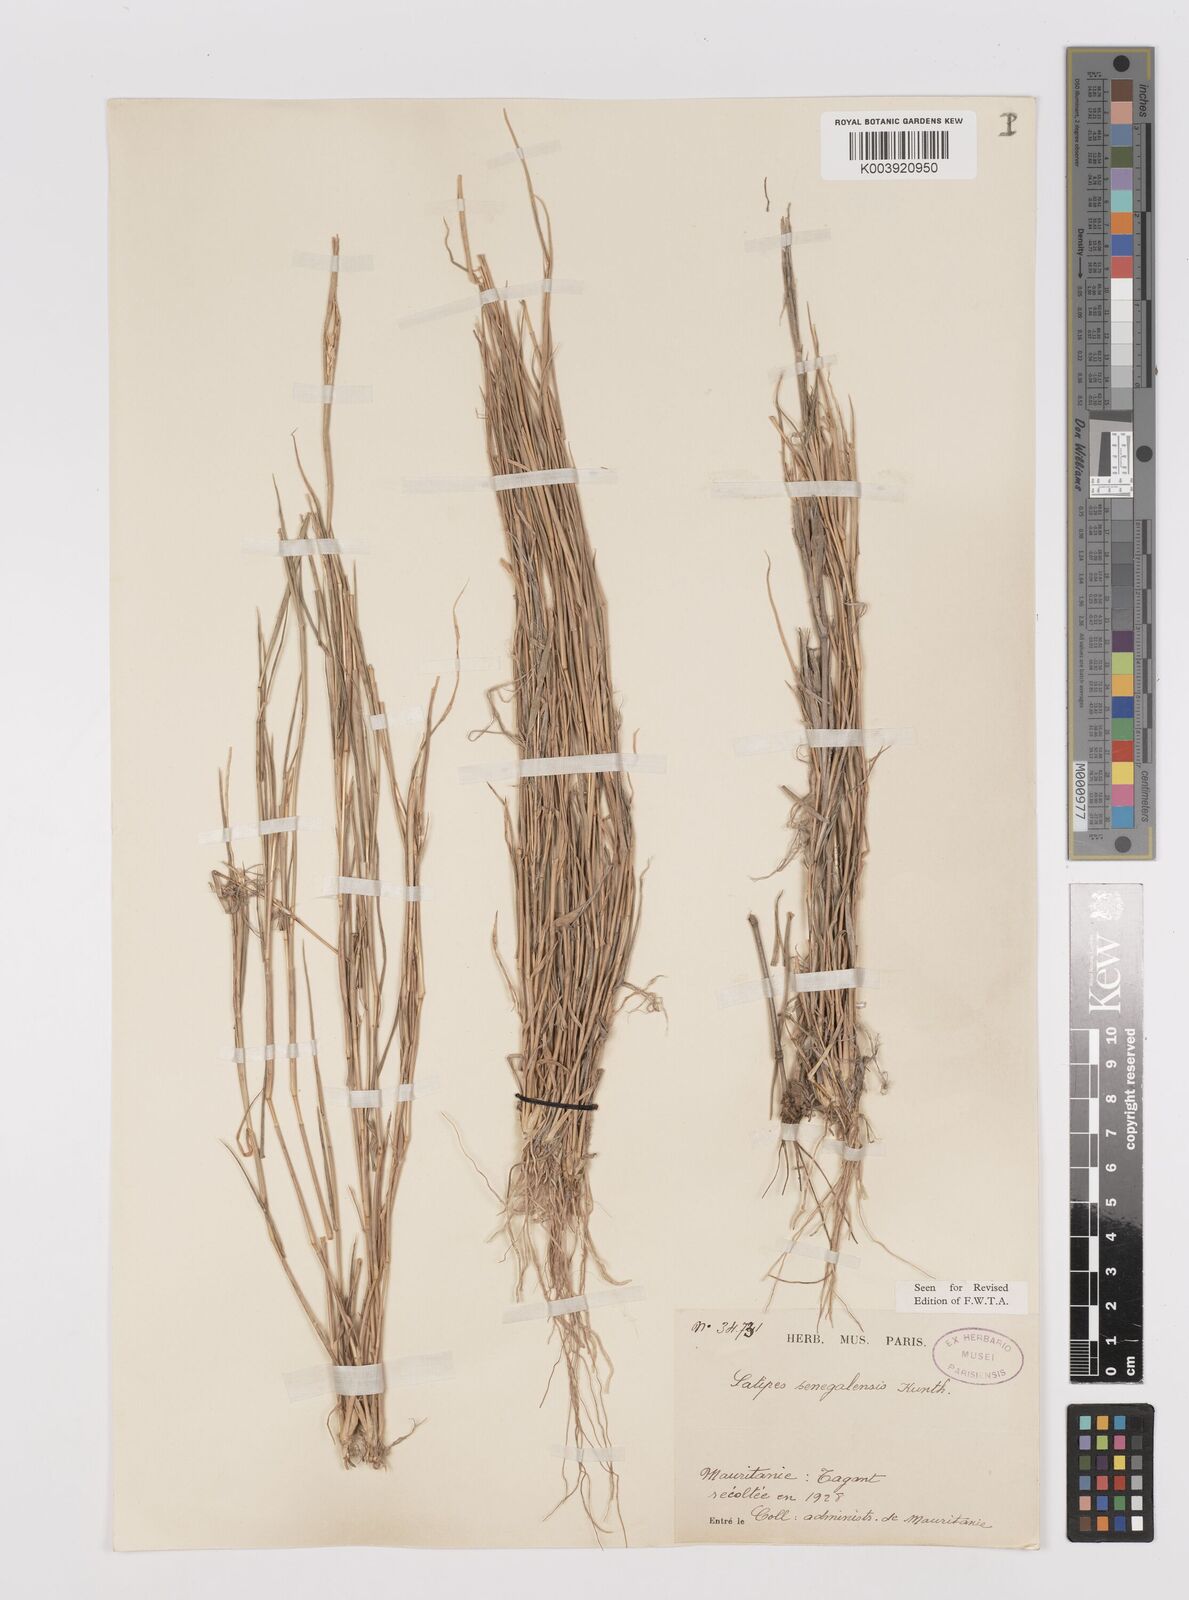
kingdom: Plantae
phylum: Tracheophyta
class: Liliopsida
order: Poales
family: Poaceae
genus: Leptothrium
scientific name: Leptothrium senegalense
